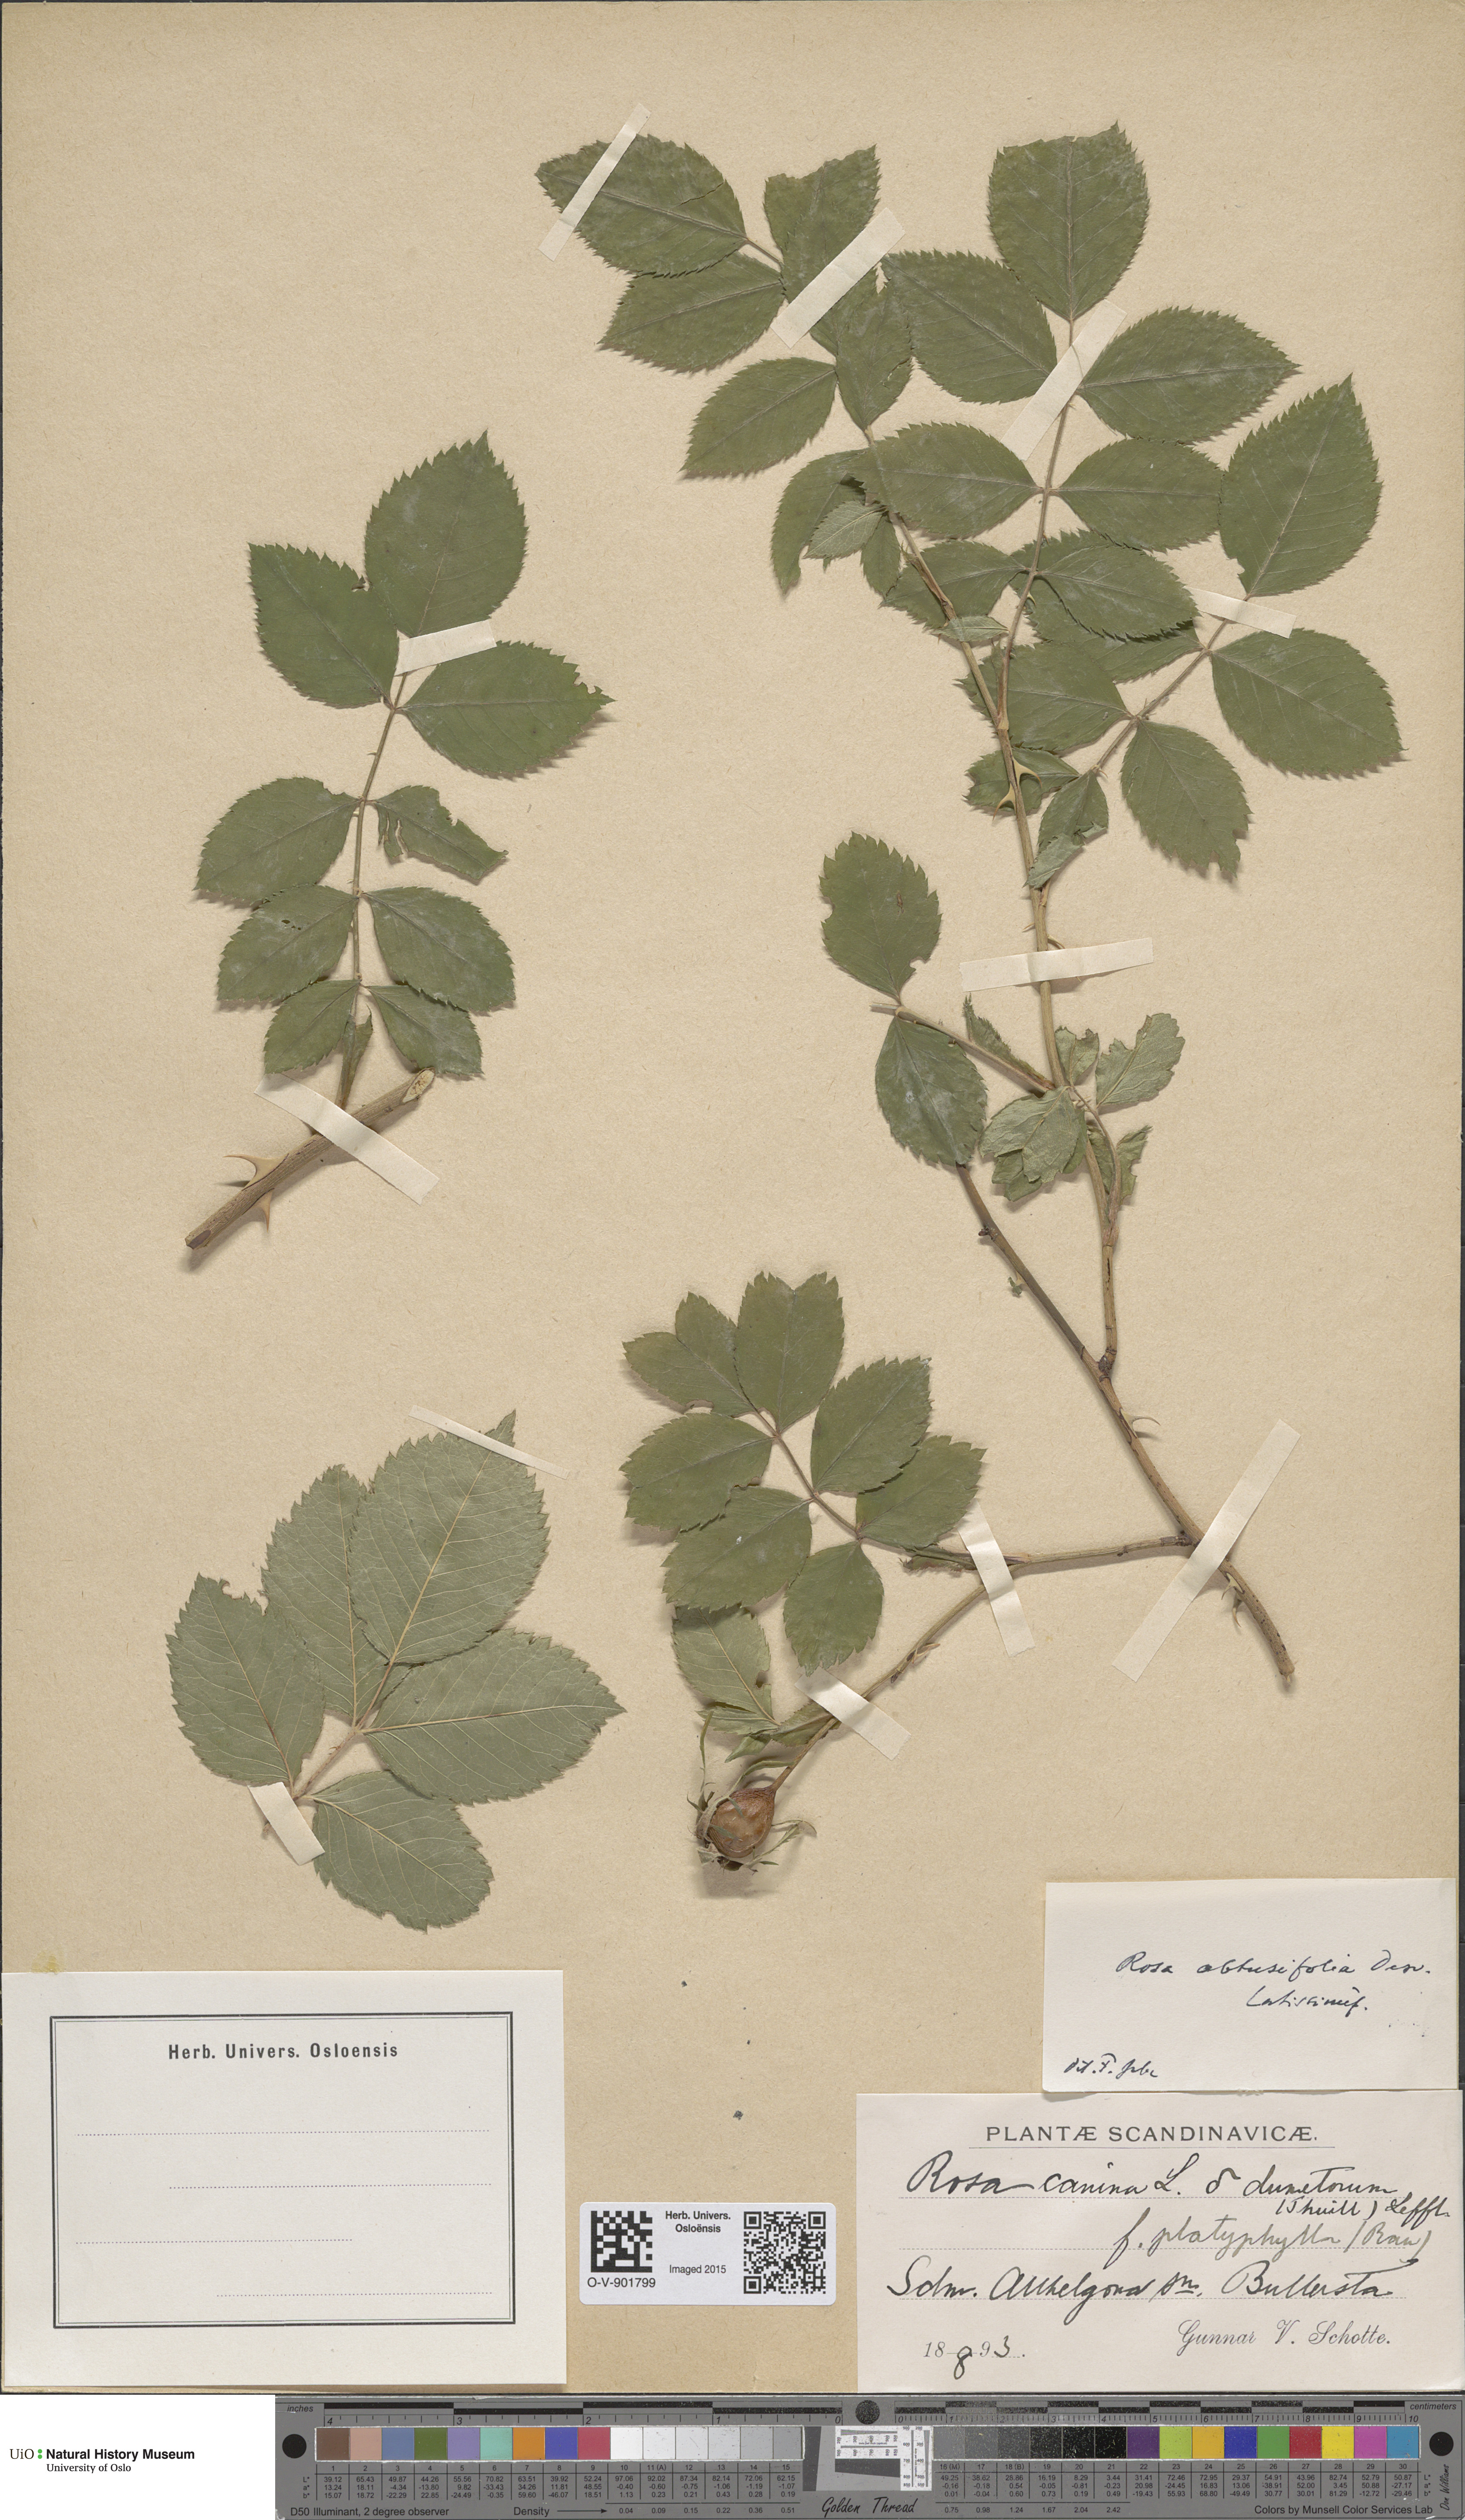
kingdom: Plantae
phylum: Tracheophyta
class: Magnoliopsida
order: Rosales
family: Rosaceae
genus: Rosa
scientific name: Rosa obtusifolia
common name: Round-leaved dog-rose
